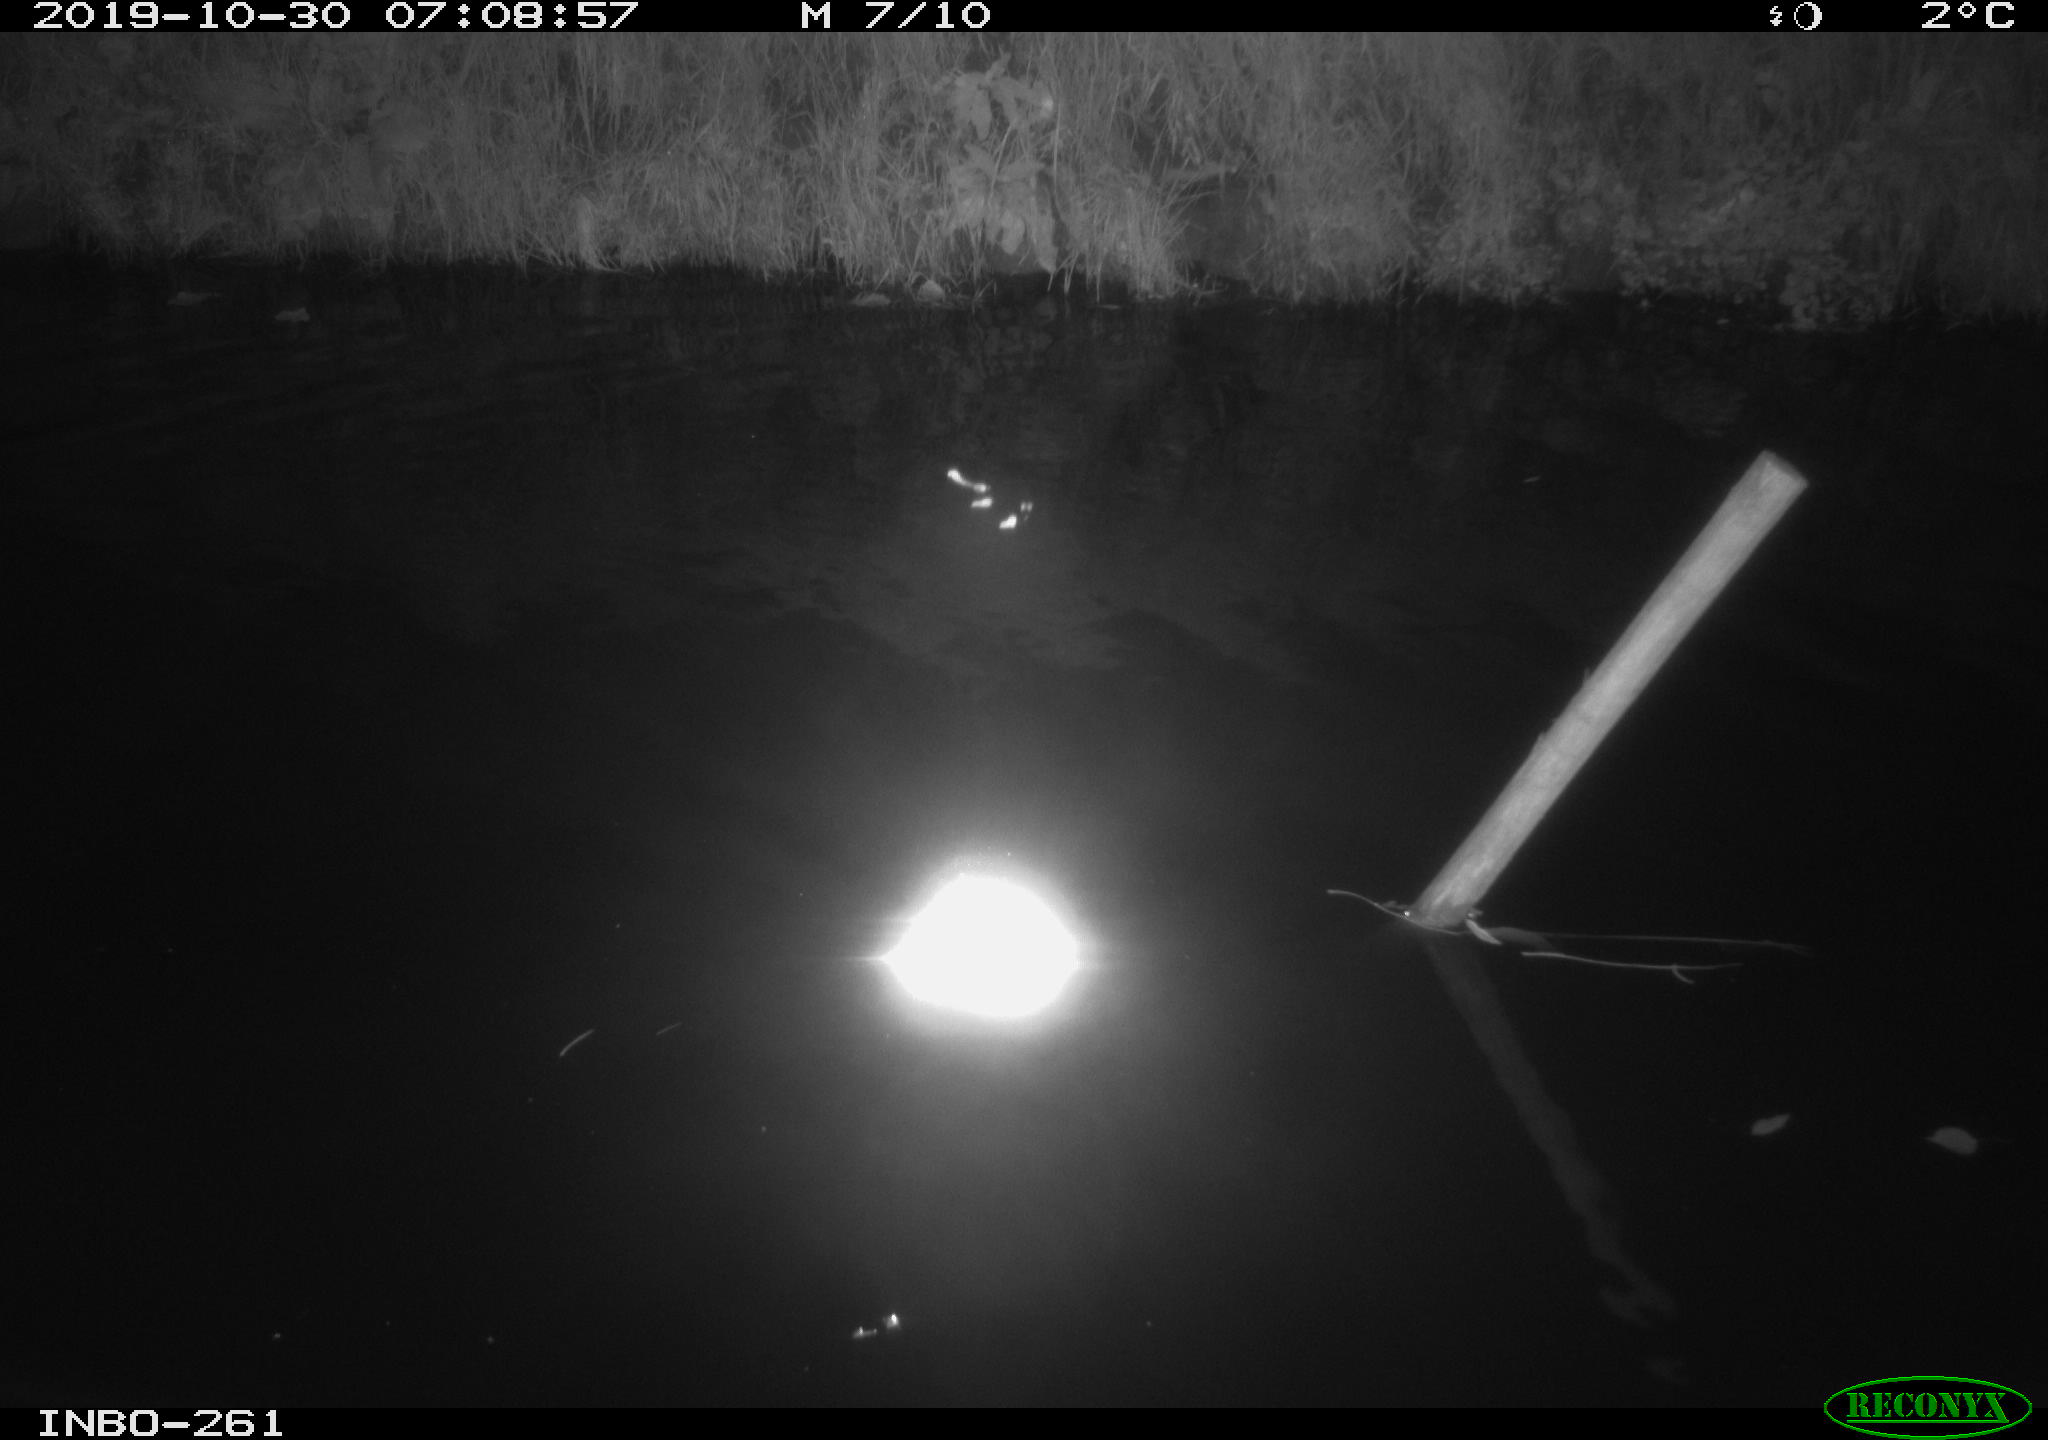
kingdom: Animalia
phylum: Chordata
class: Aves
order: Anseriformes
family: Anatidae
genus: Anas
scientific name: Anas platyrhynchos
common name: Mallard
